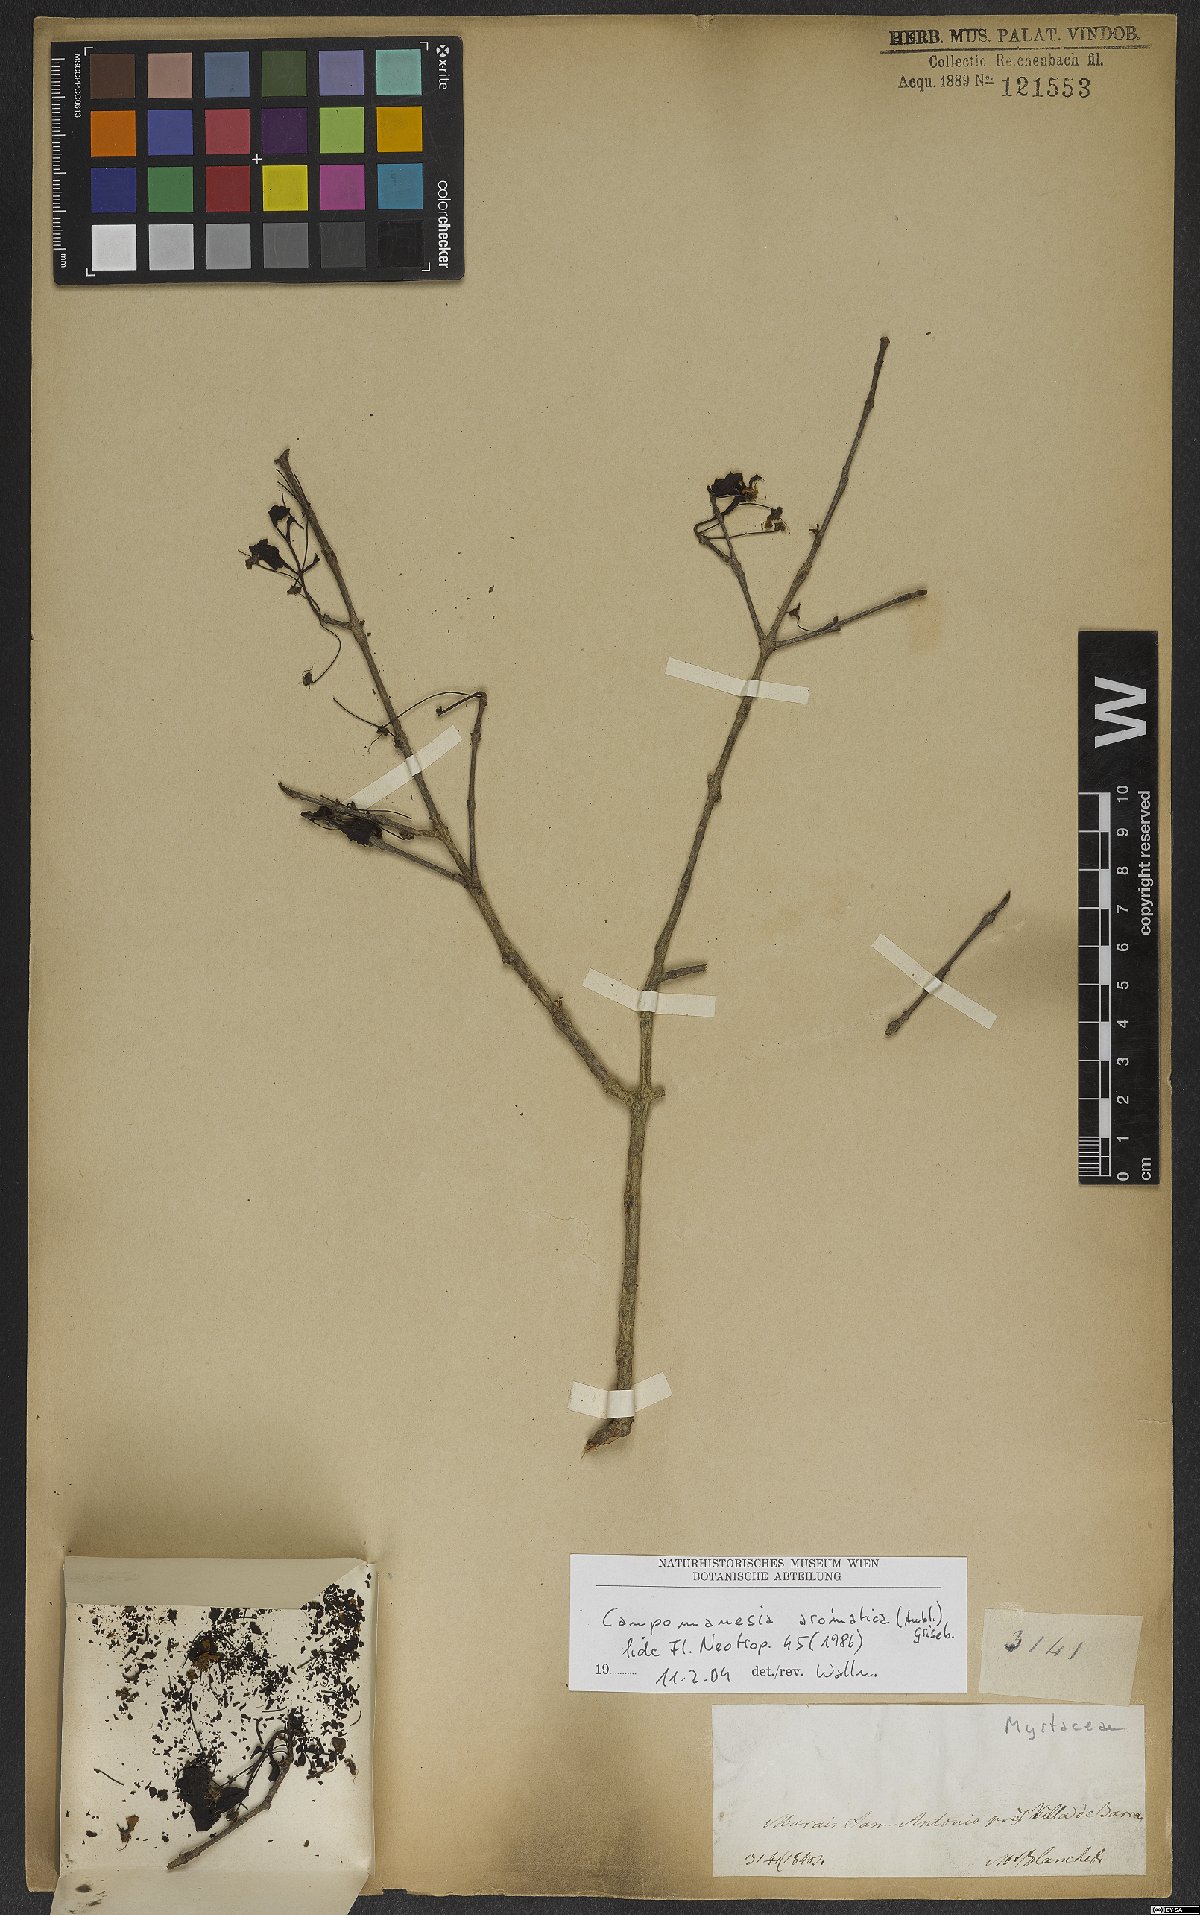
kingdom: Plantae
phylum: Tracheophyta
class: Magnoliopsida
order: Myrtales
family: Myrtaceae
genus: Campomanesia
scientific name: Campomanesia aromatica
